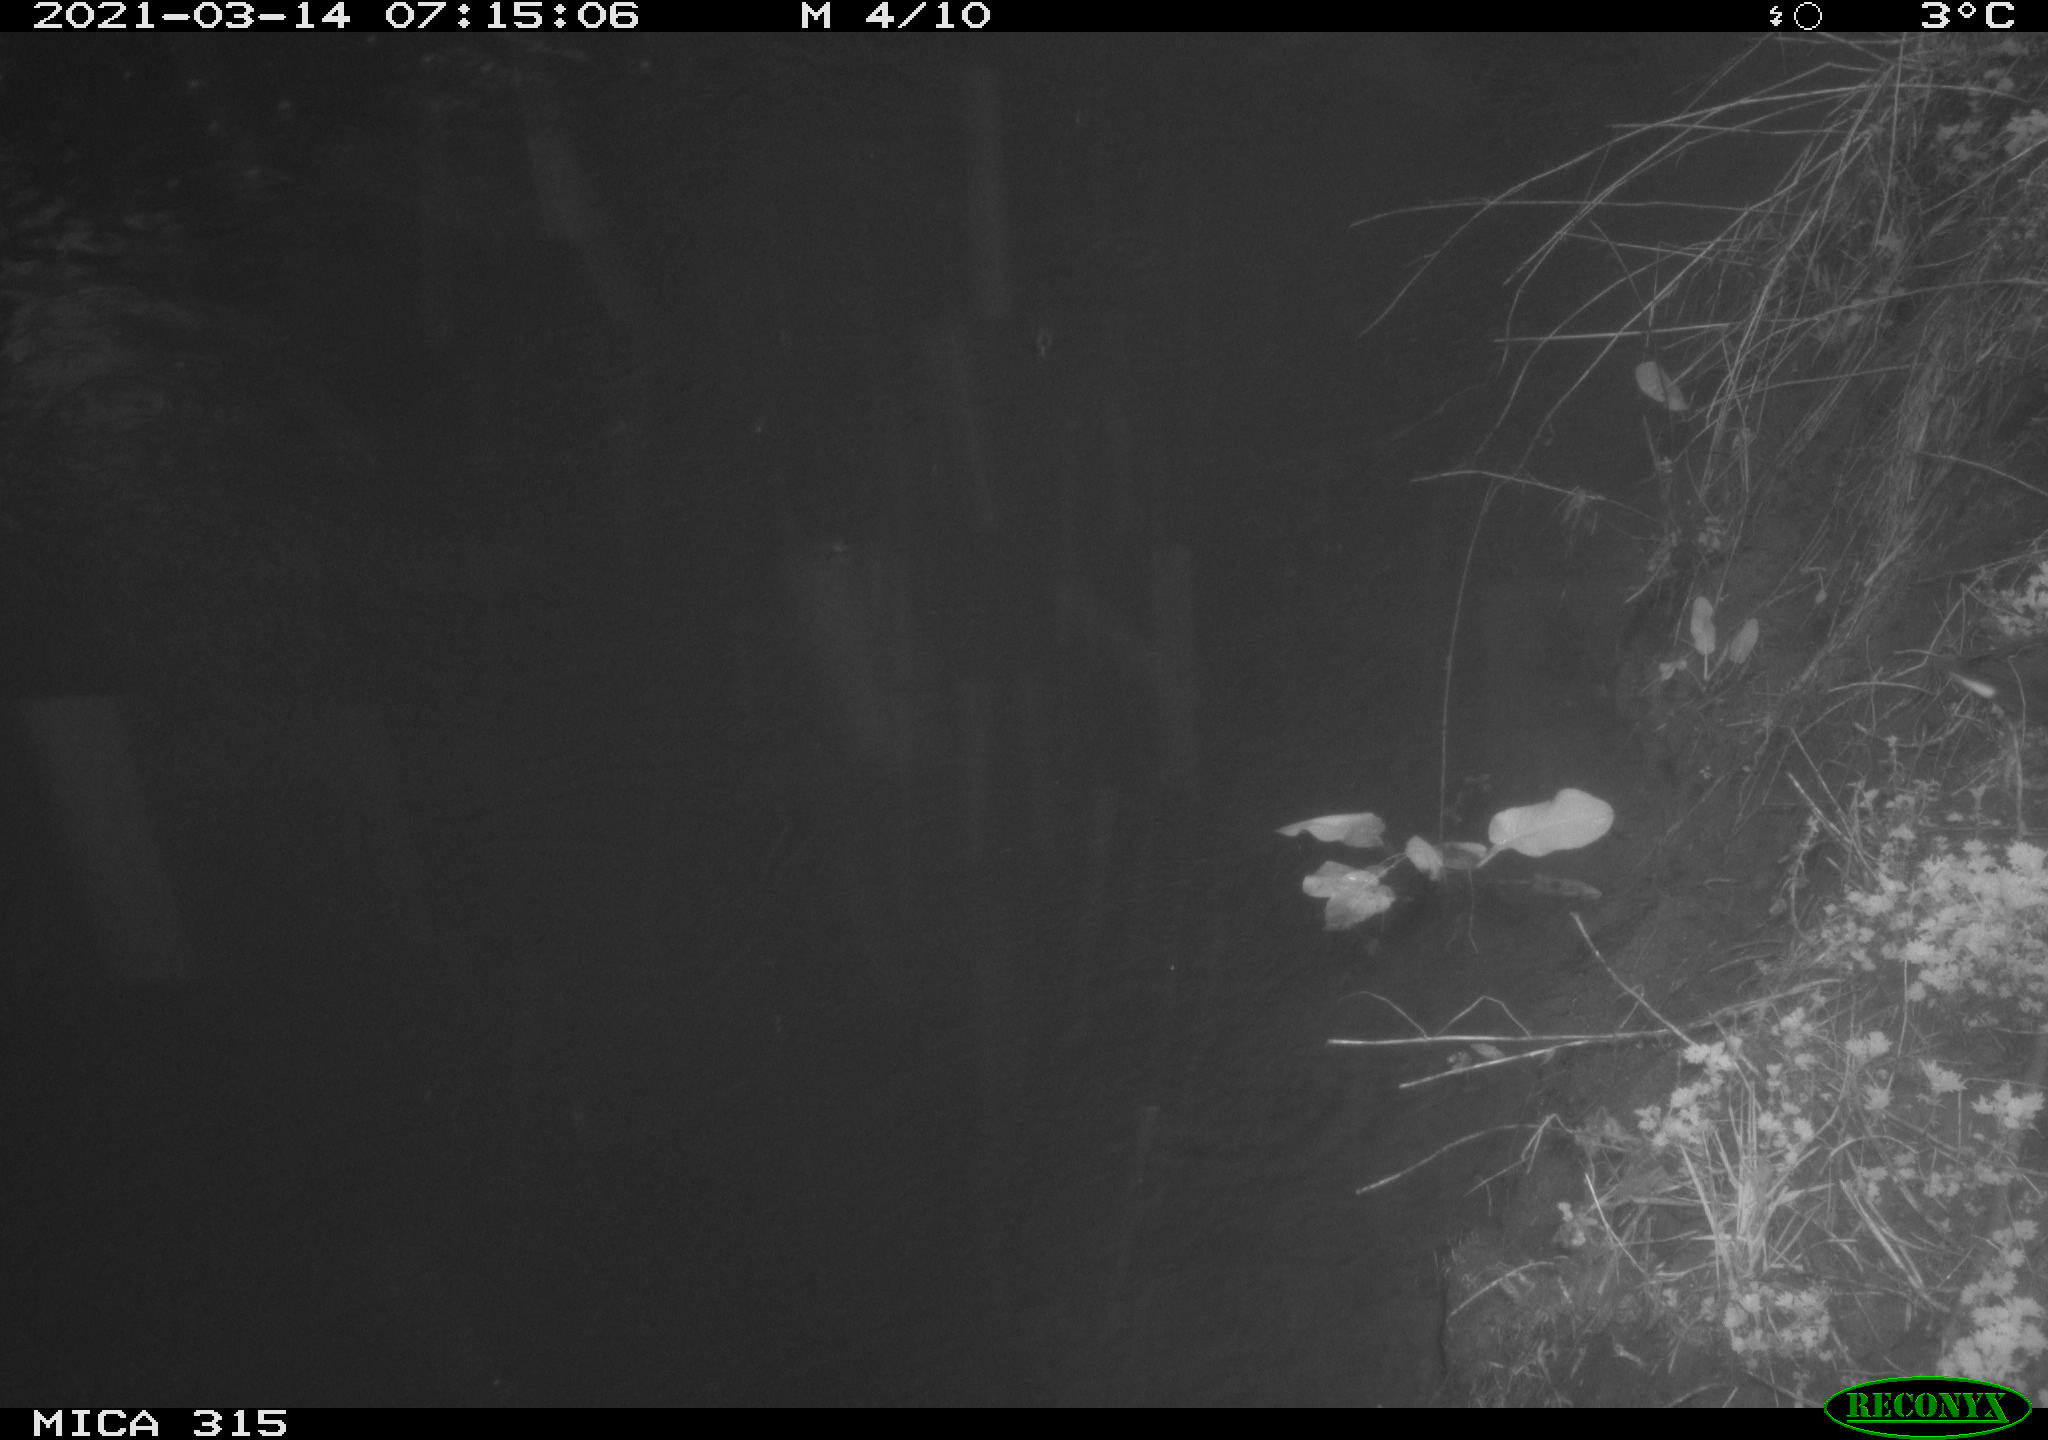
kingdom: Animalia
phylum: Chordata
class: Aves
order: Gruiformes
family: Rallidae
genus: Gallinula
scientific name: Gallinula chloropus
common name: Common moorhen
